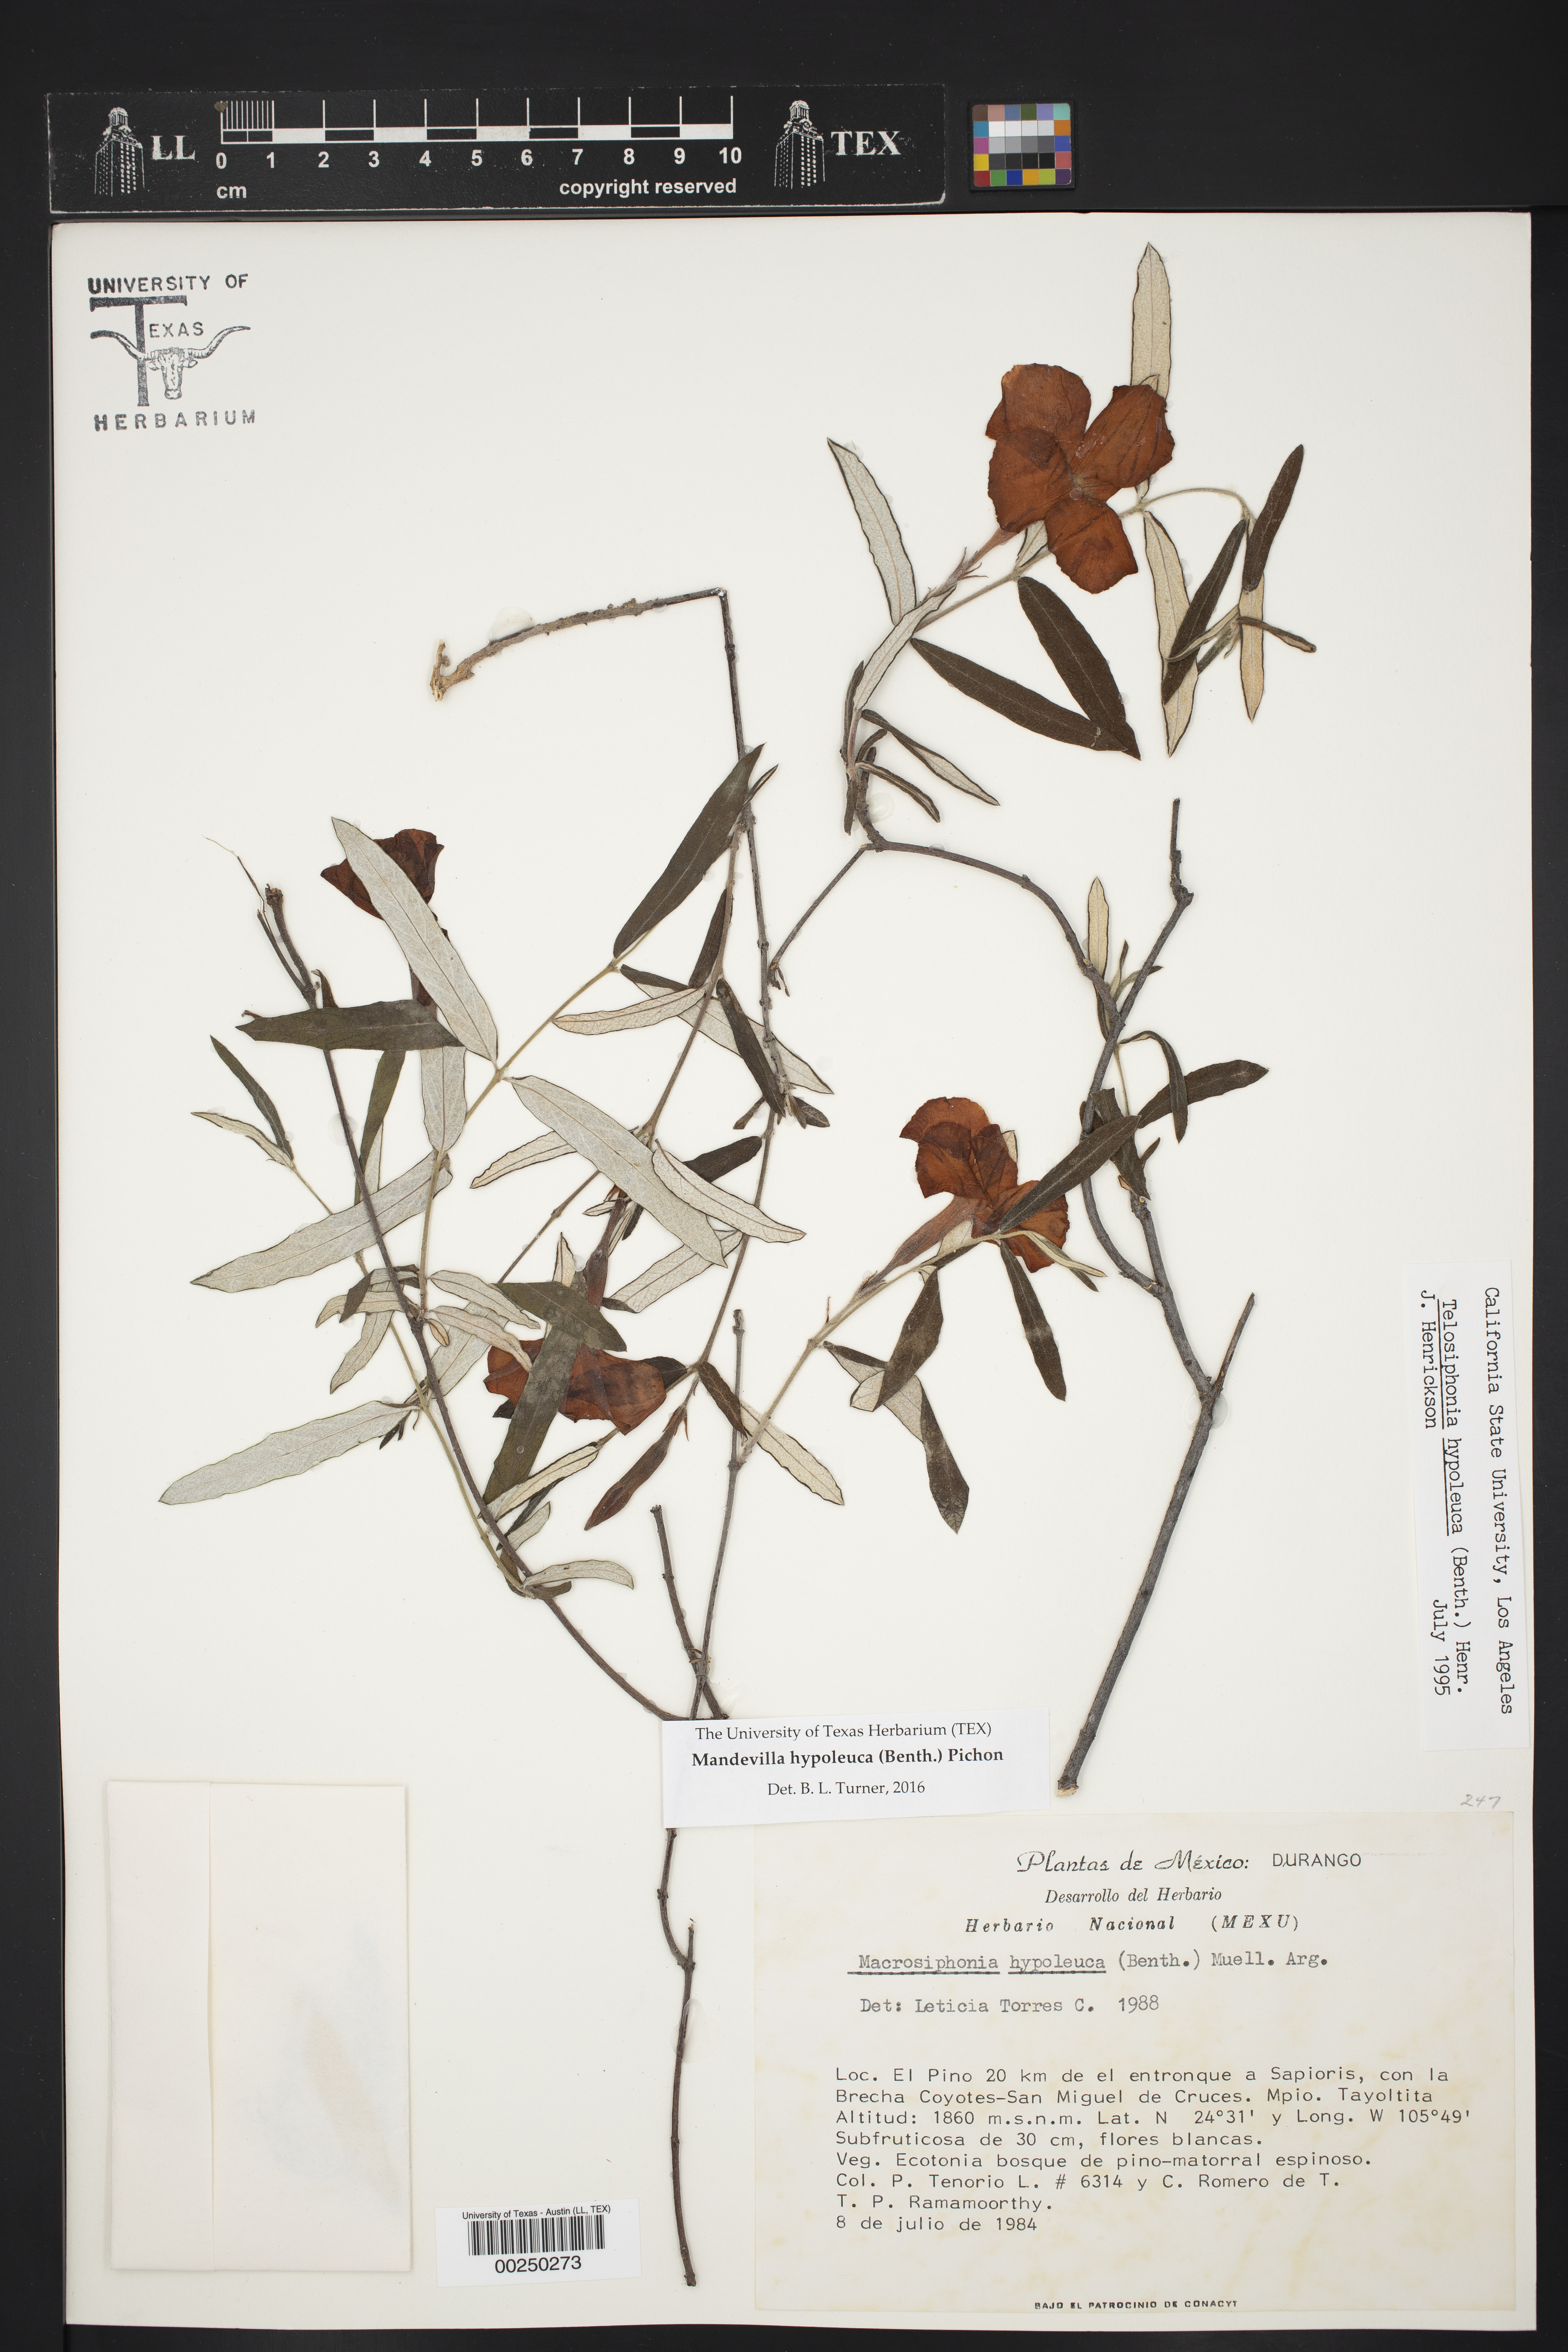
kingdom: Plantae
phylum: Tracheophyta
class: Magnoliopsida
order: Gentianales
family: Apocynaceae
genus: Mandevilla
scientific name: Mandevilla hypoleuca
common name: Davis mountain rocktrumpet
